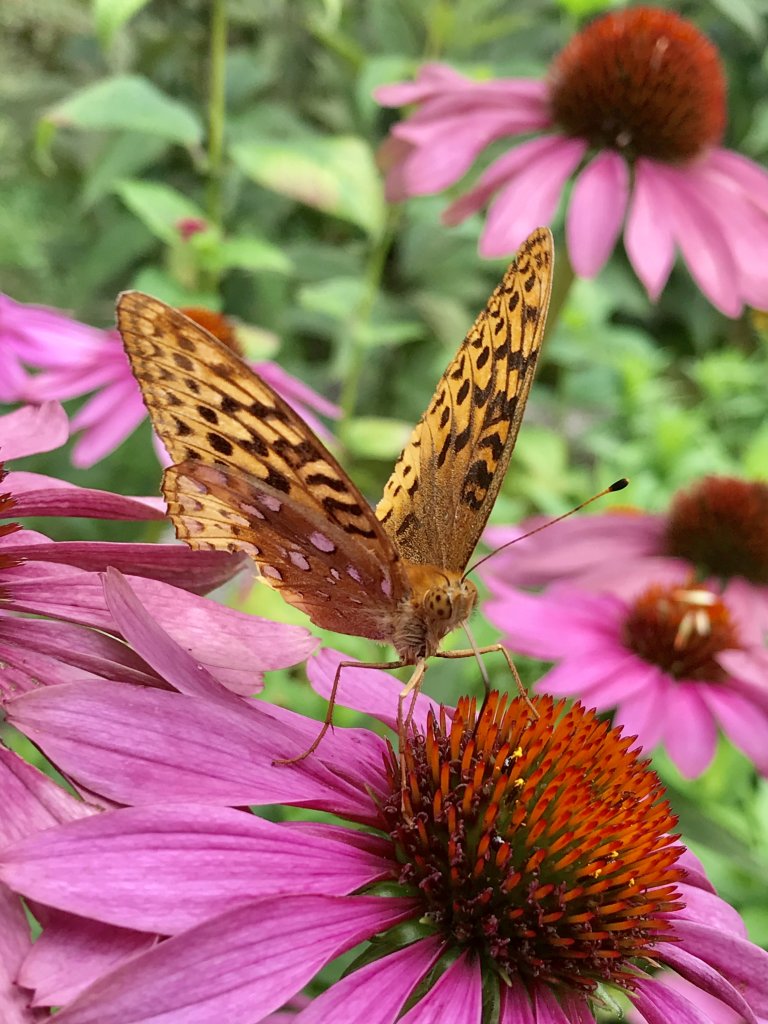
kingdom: Animalia
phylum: Arthropoda
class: Insecta
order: Lepidoptera
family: Nymphalidae
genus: Speyeria
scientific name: Speyeria cybele
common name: Great Spangled Fritillary
